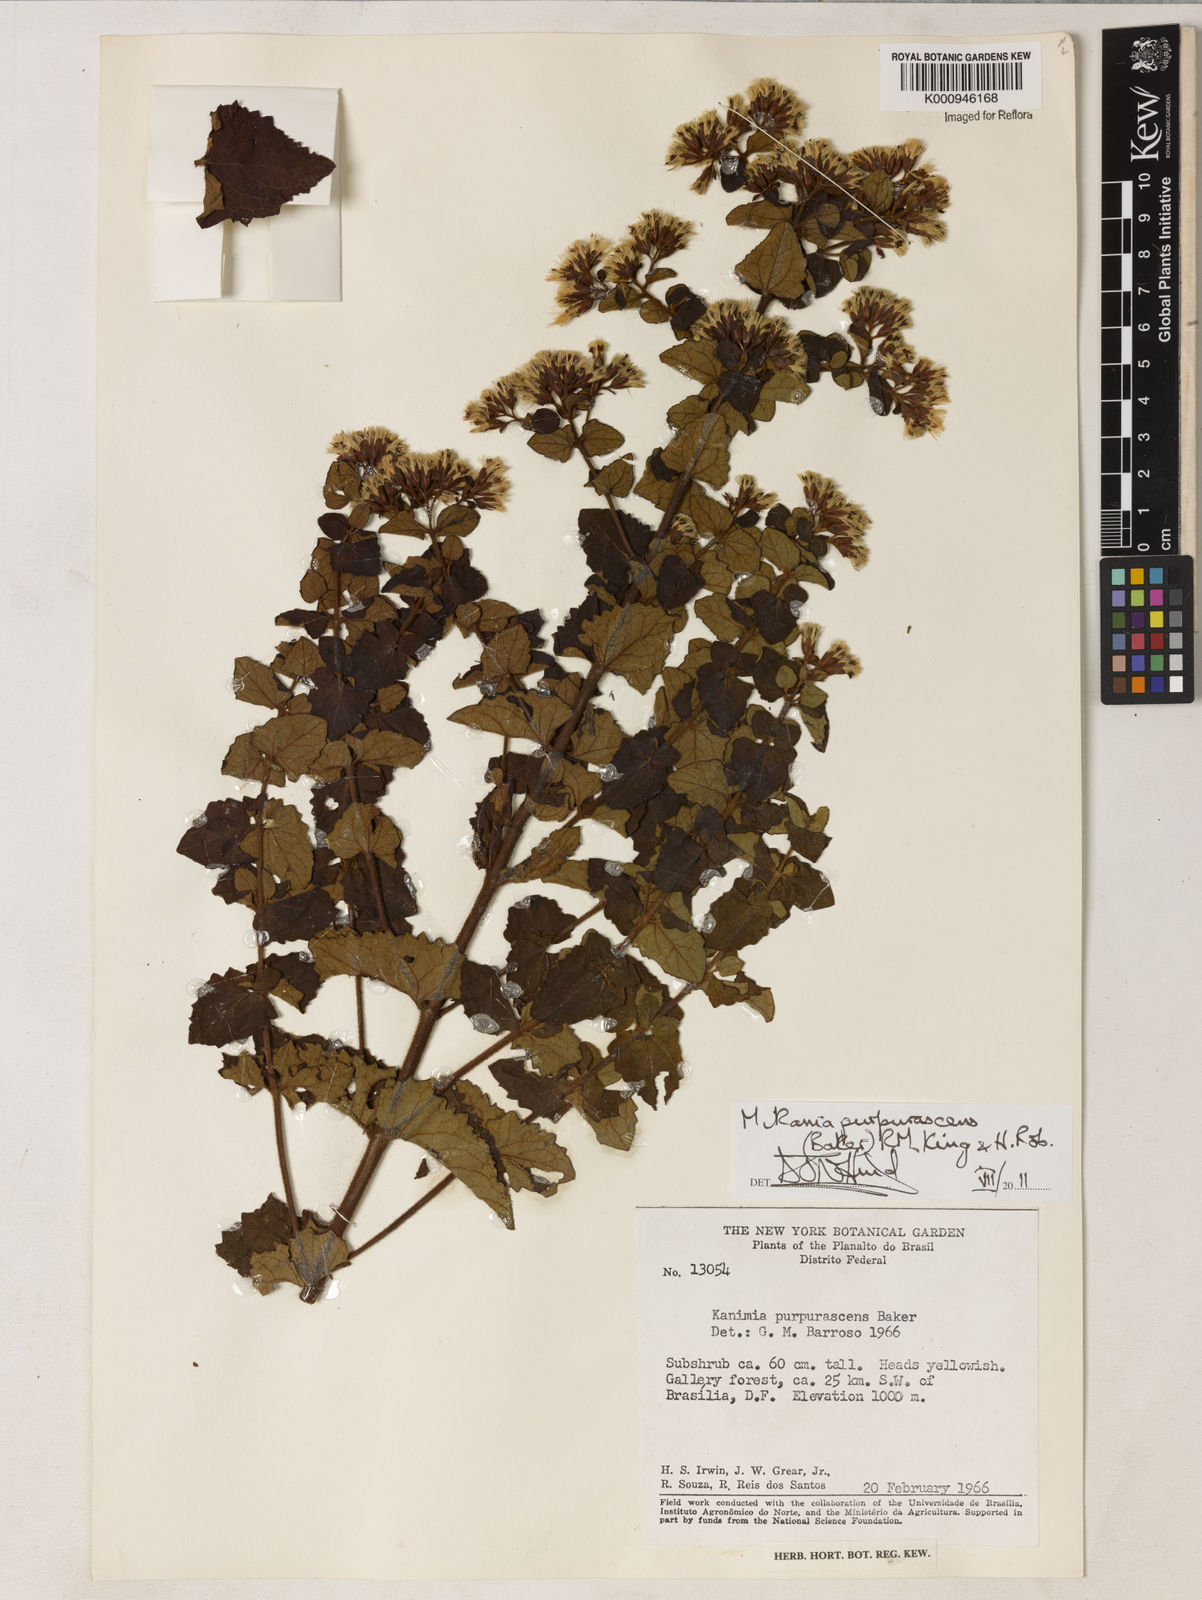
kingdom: Plantae
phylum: Tracheophyta
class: Magnoliopsida
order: Asterales
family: Asteraceae
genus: Mikania
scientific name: Mikania purpurascens
